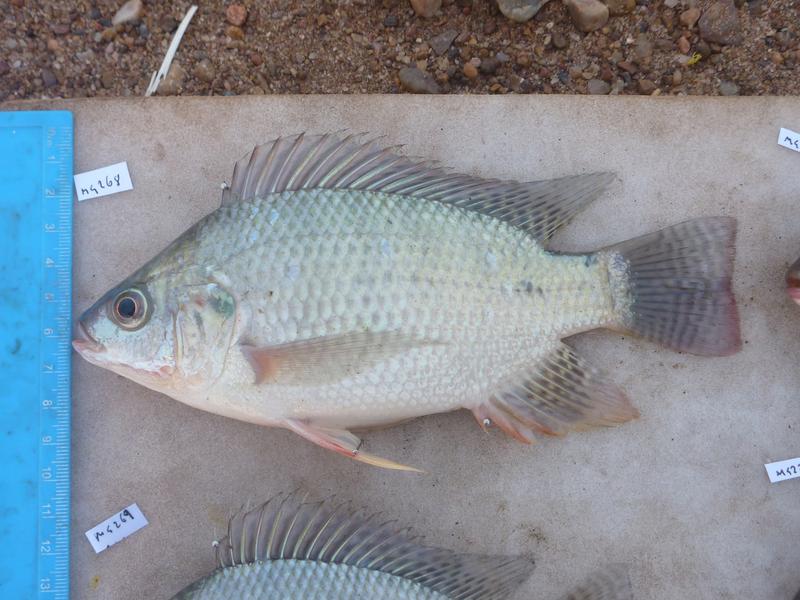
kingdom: Animalia
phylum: Chordata
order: Perciformes
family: Cichlidae
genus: Oreochromis
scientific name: Oreochromis niloticus
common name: Nile tilapia
